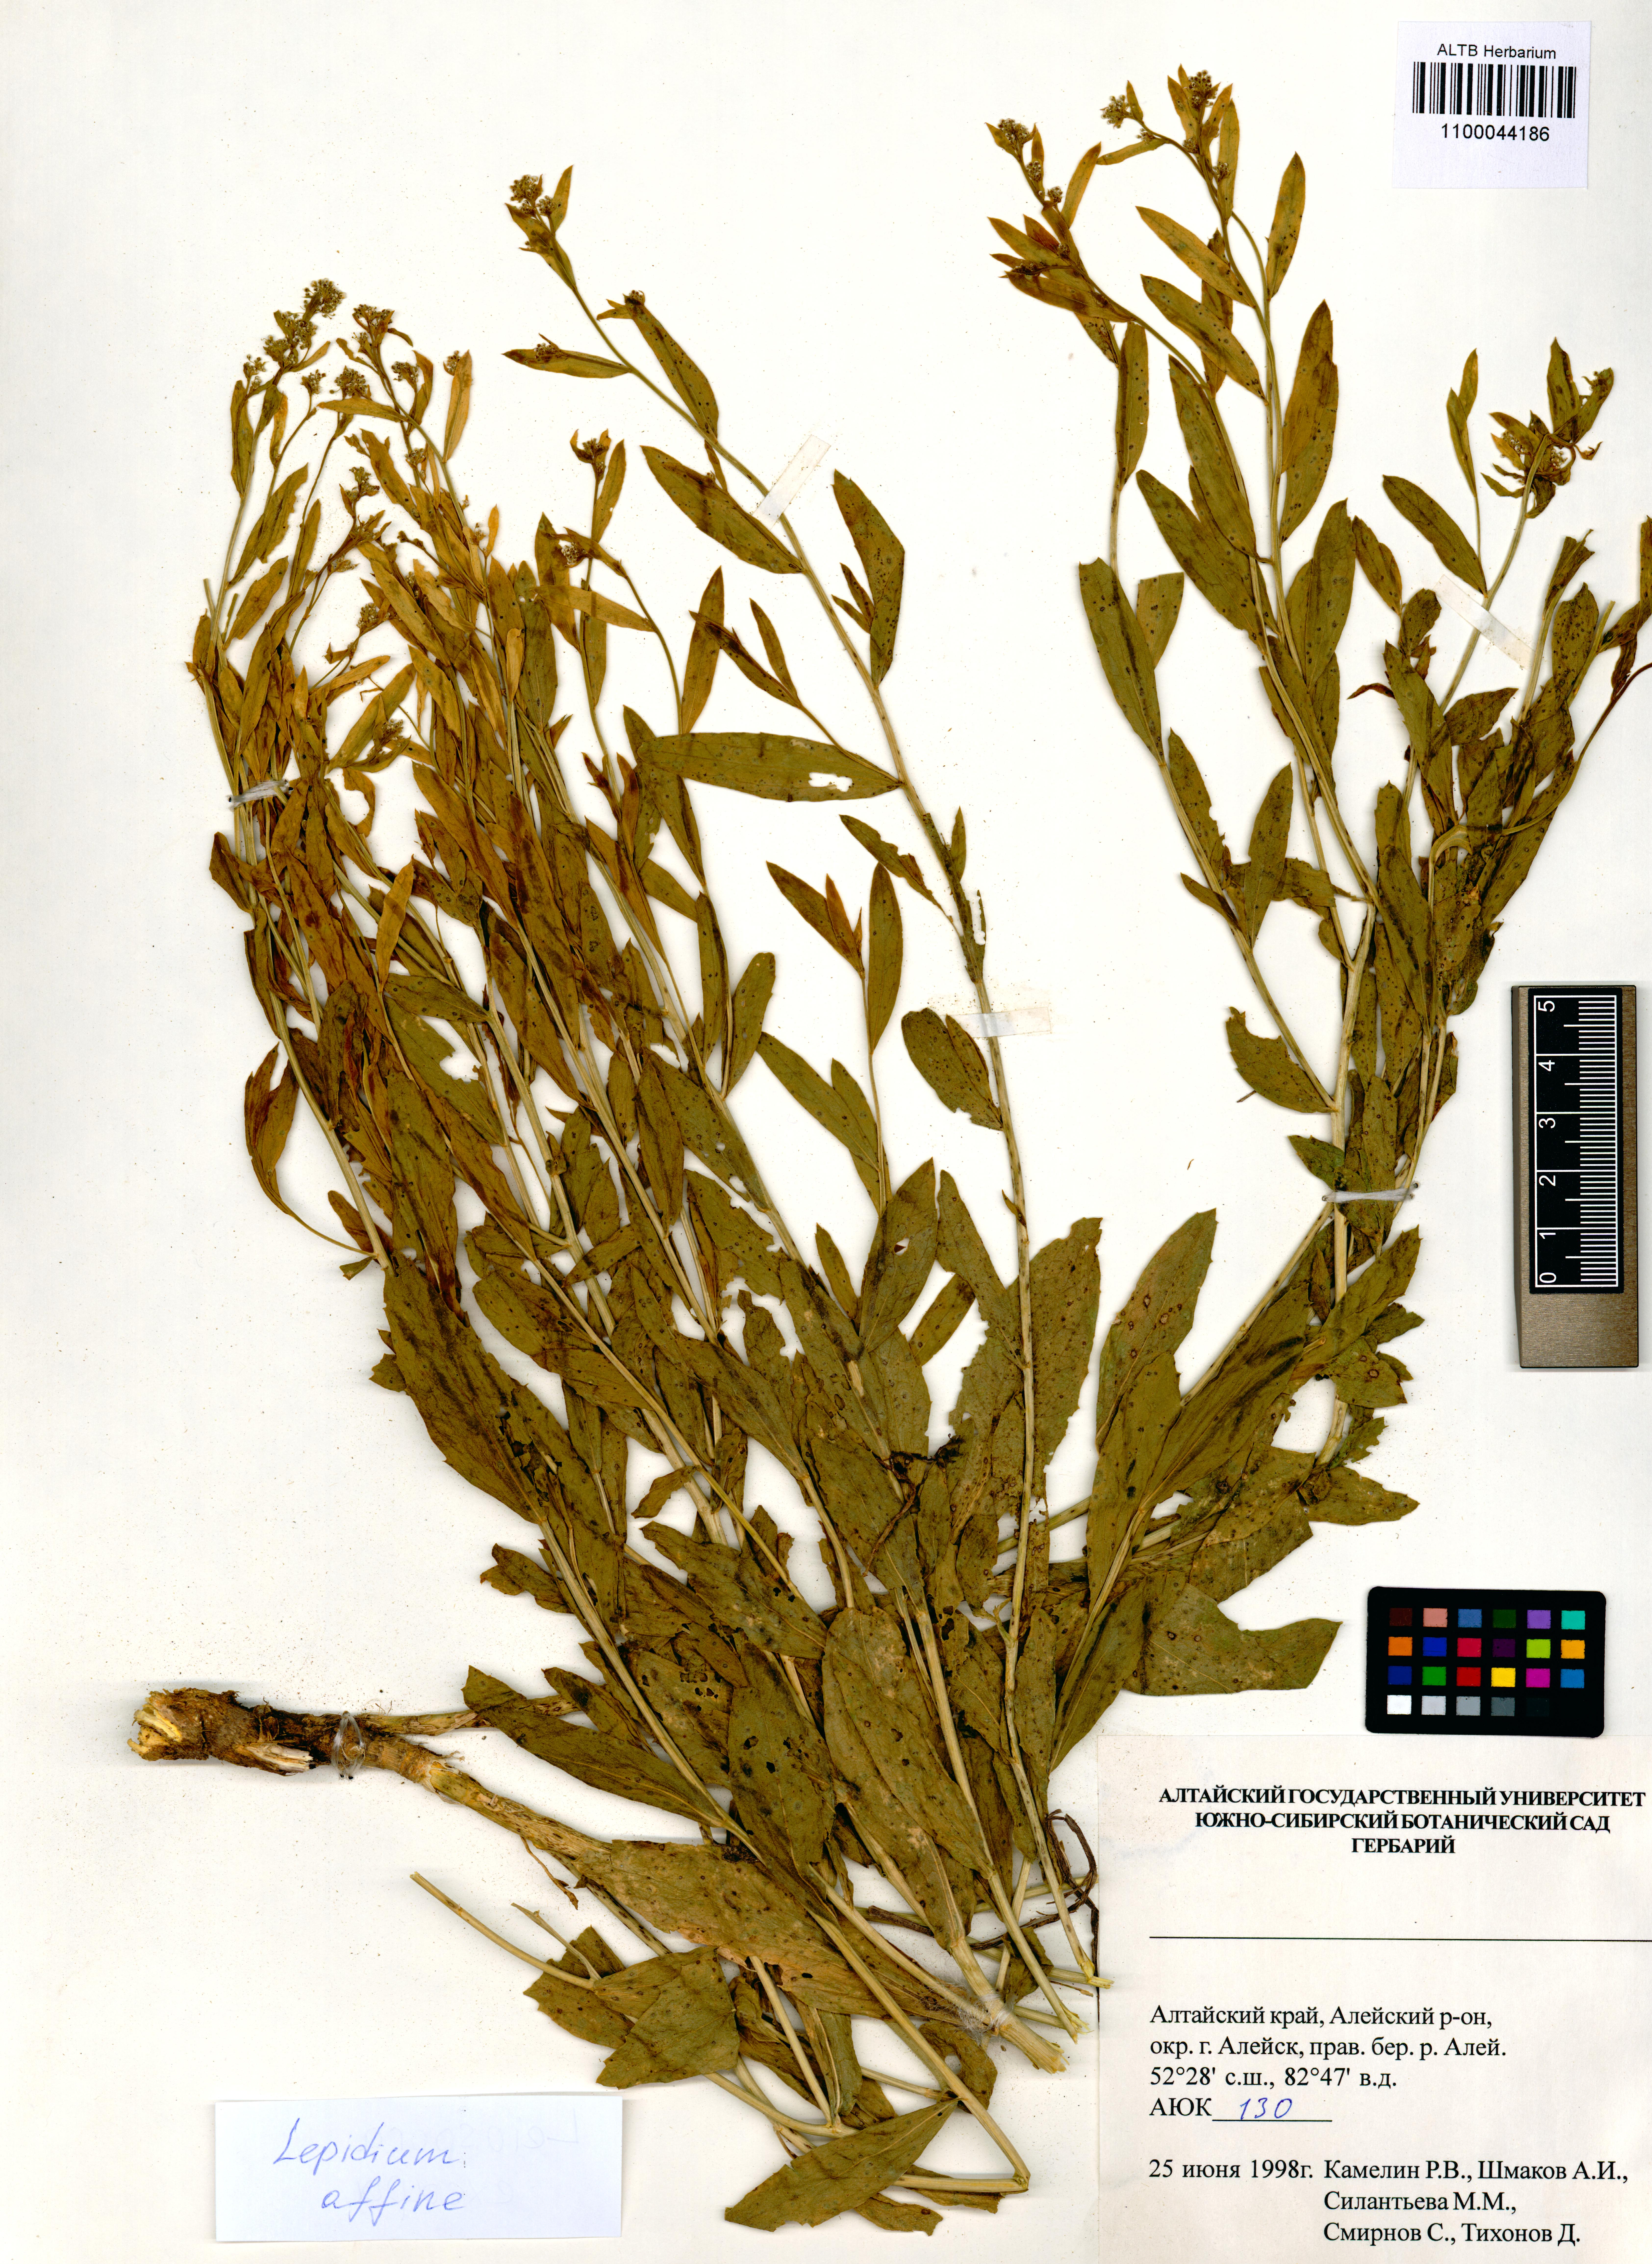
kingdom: Plantae
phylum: Tracheophyta
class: Magnoliopsida
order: Brassicales
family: Brassicaceae
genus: Lepidium
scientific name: Lepidium latifolium
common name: Dittander
